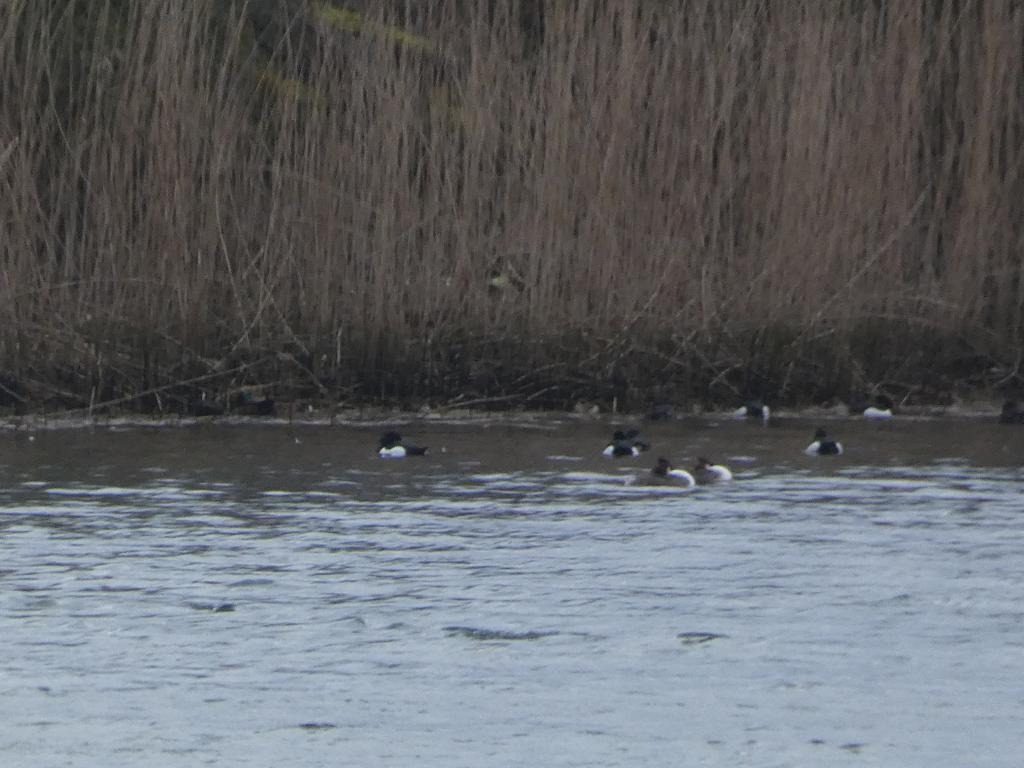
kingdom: Animalia
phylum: Chordata
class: Aves
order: Anseriformes
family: Anatidae
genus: Aythya
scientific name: Aythya fuligula
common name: Troldand
